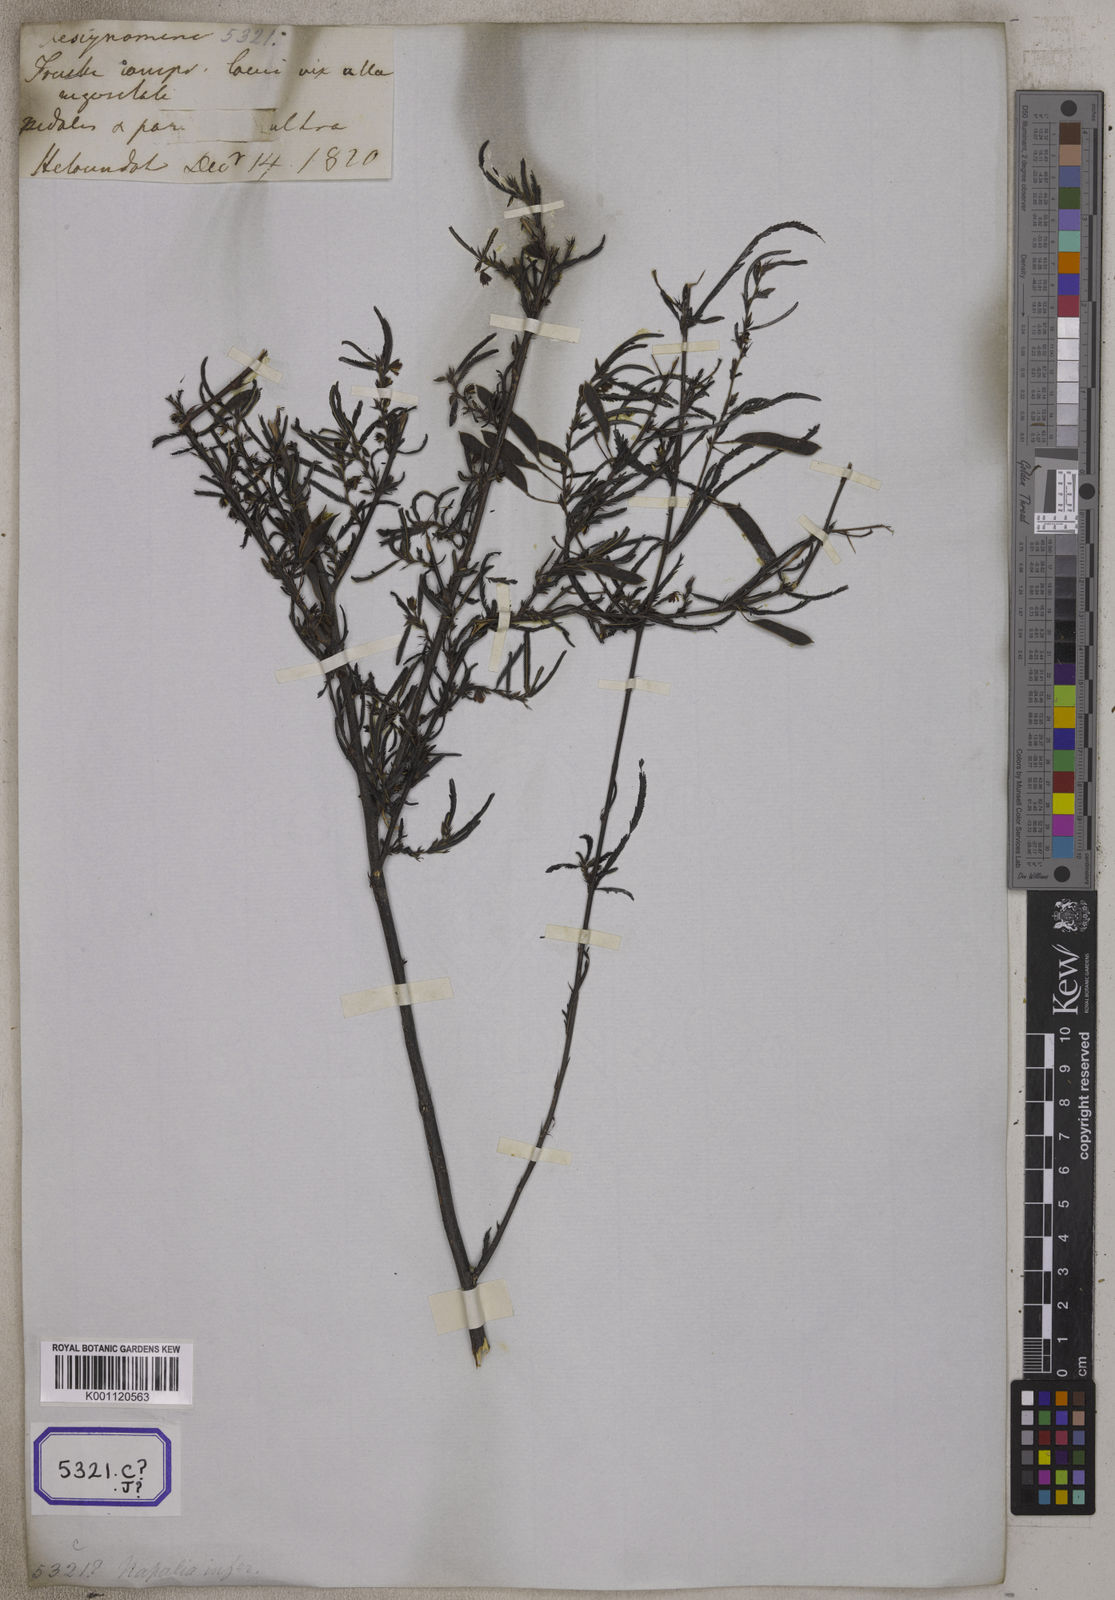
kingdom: Plantae
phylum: Tracheophyta
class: Magnoliopsida
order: Fabales
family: Fabaceae
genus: Chamaecrista
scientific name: Chamaecrista mimosoides
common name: Fish-bone cassia
